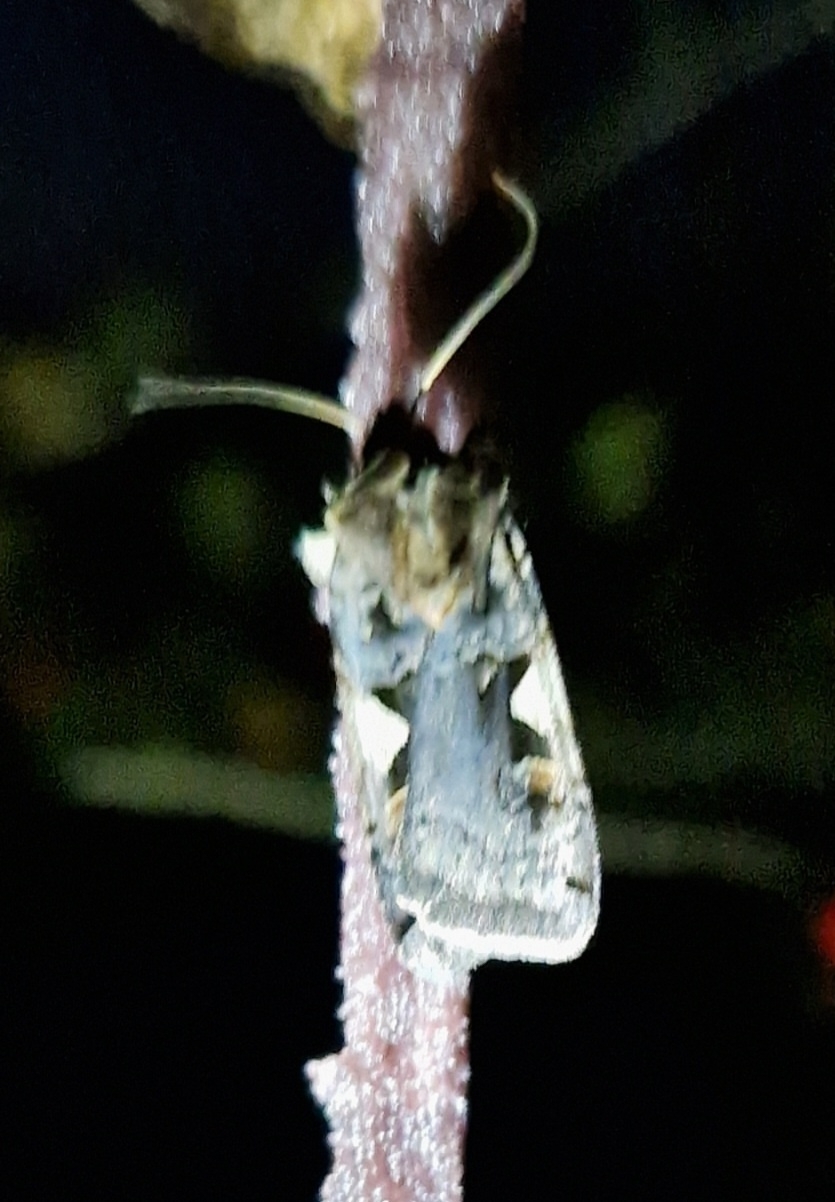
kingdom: Animalia
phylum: Arthropoda
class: Insecta
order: Lepidoptera
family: Noctuidae
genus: Xestia
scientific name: Xestia c-nigrum
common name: Det sorte c
